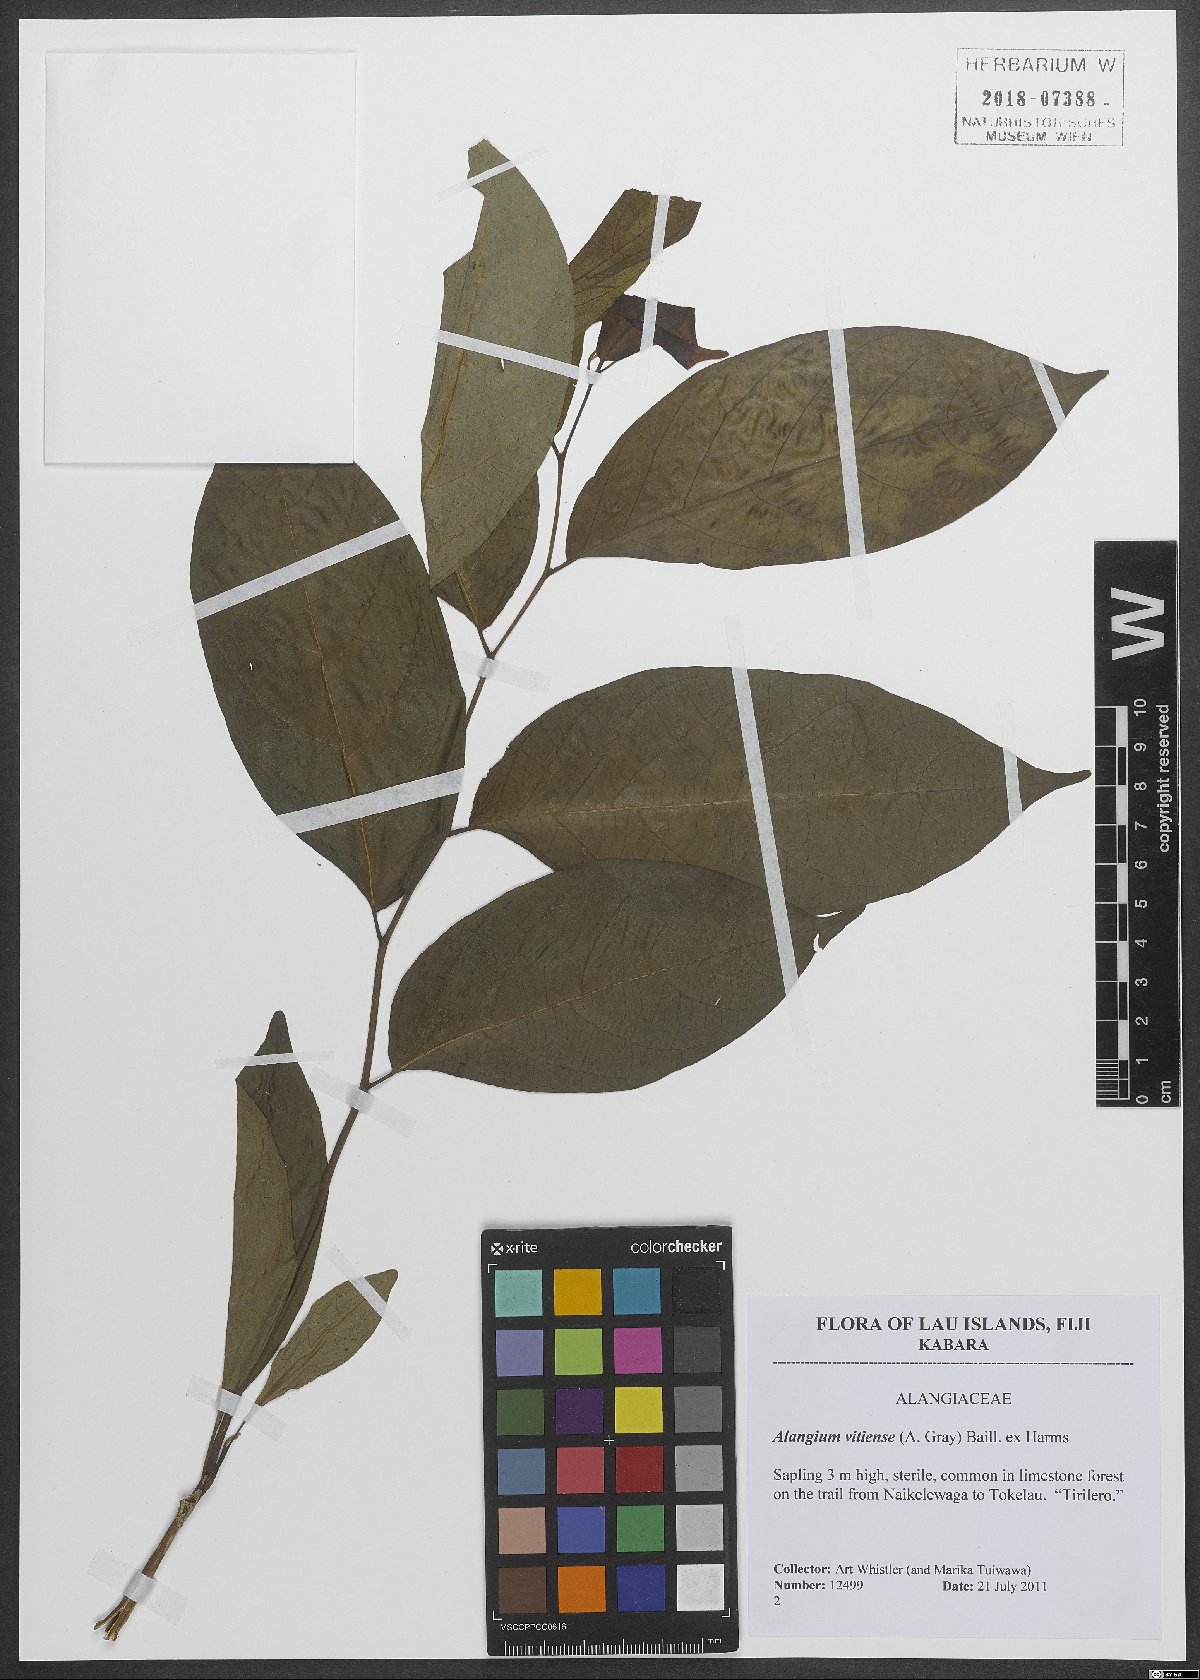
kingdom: Plantae
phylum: Tracheophyta
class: Magnoliopsida
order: Cornales
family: Cornaceae
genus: Alangium
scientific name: Alangium vitiense
